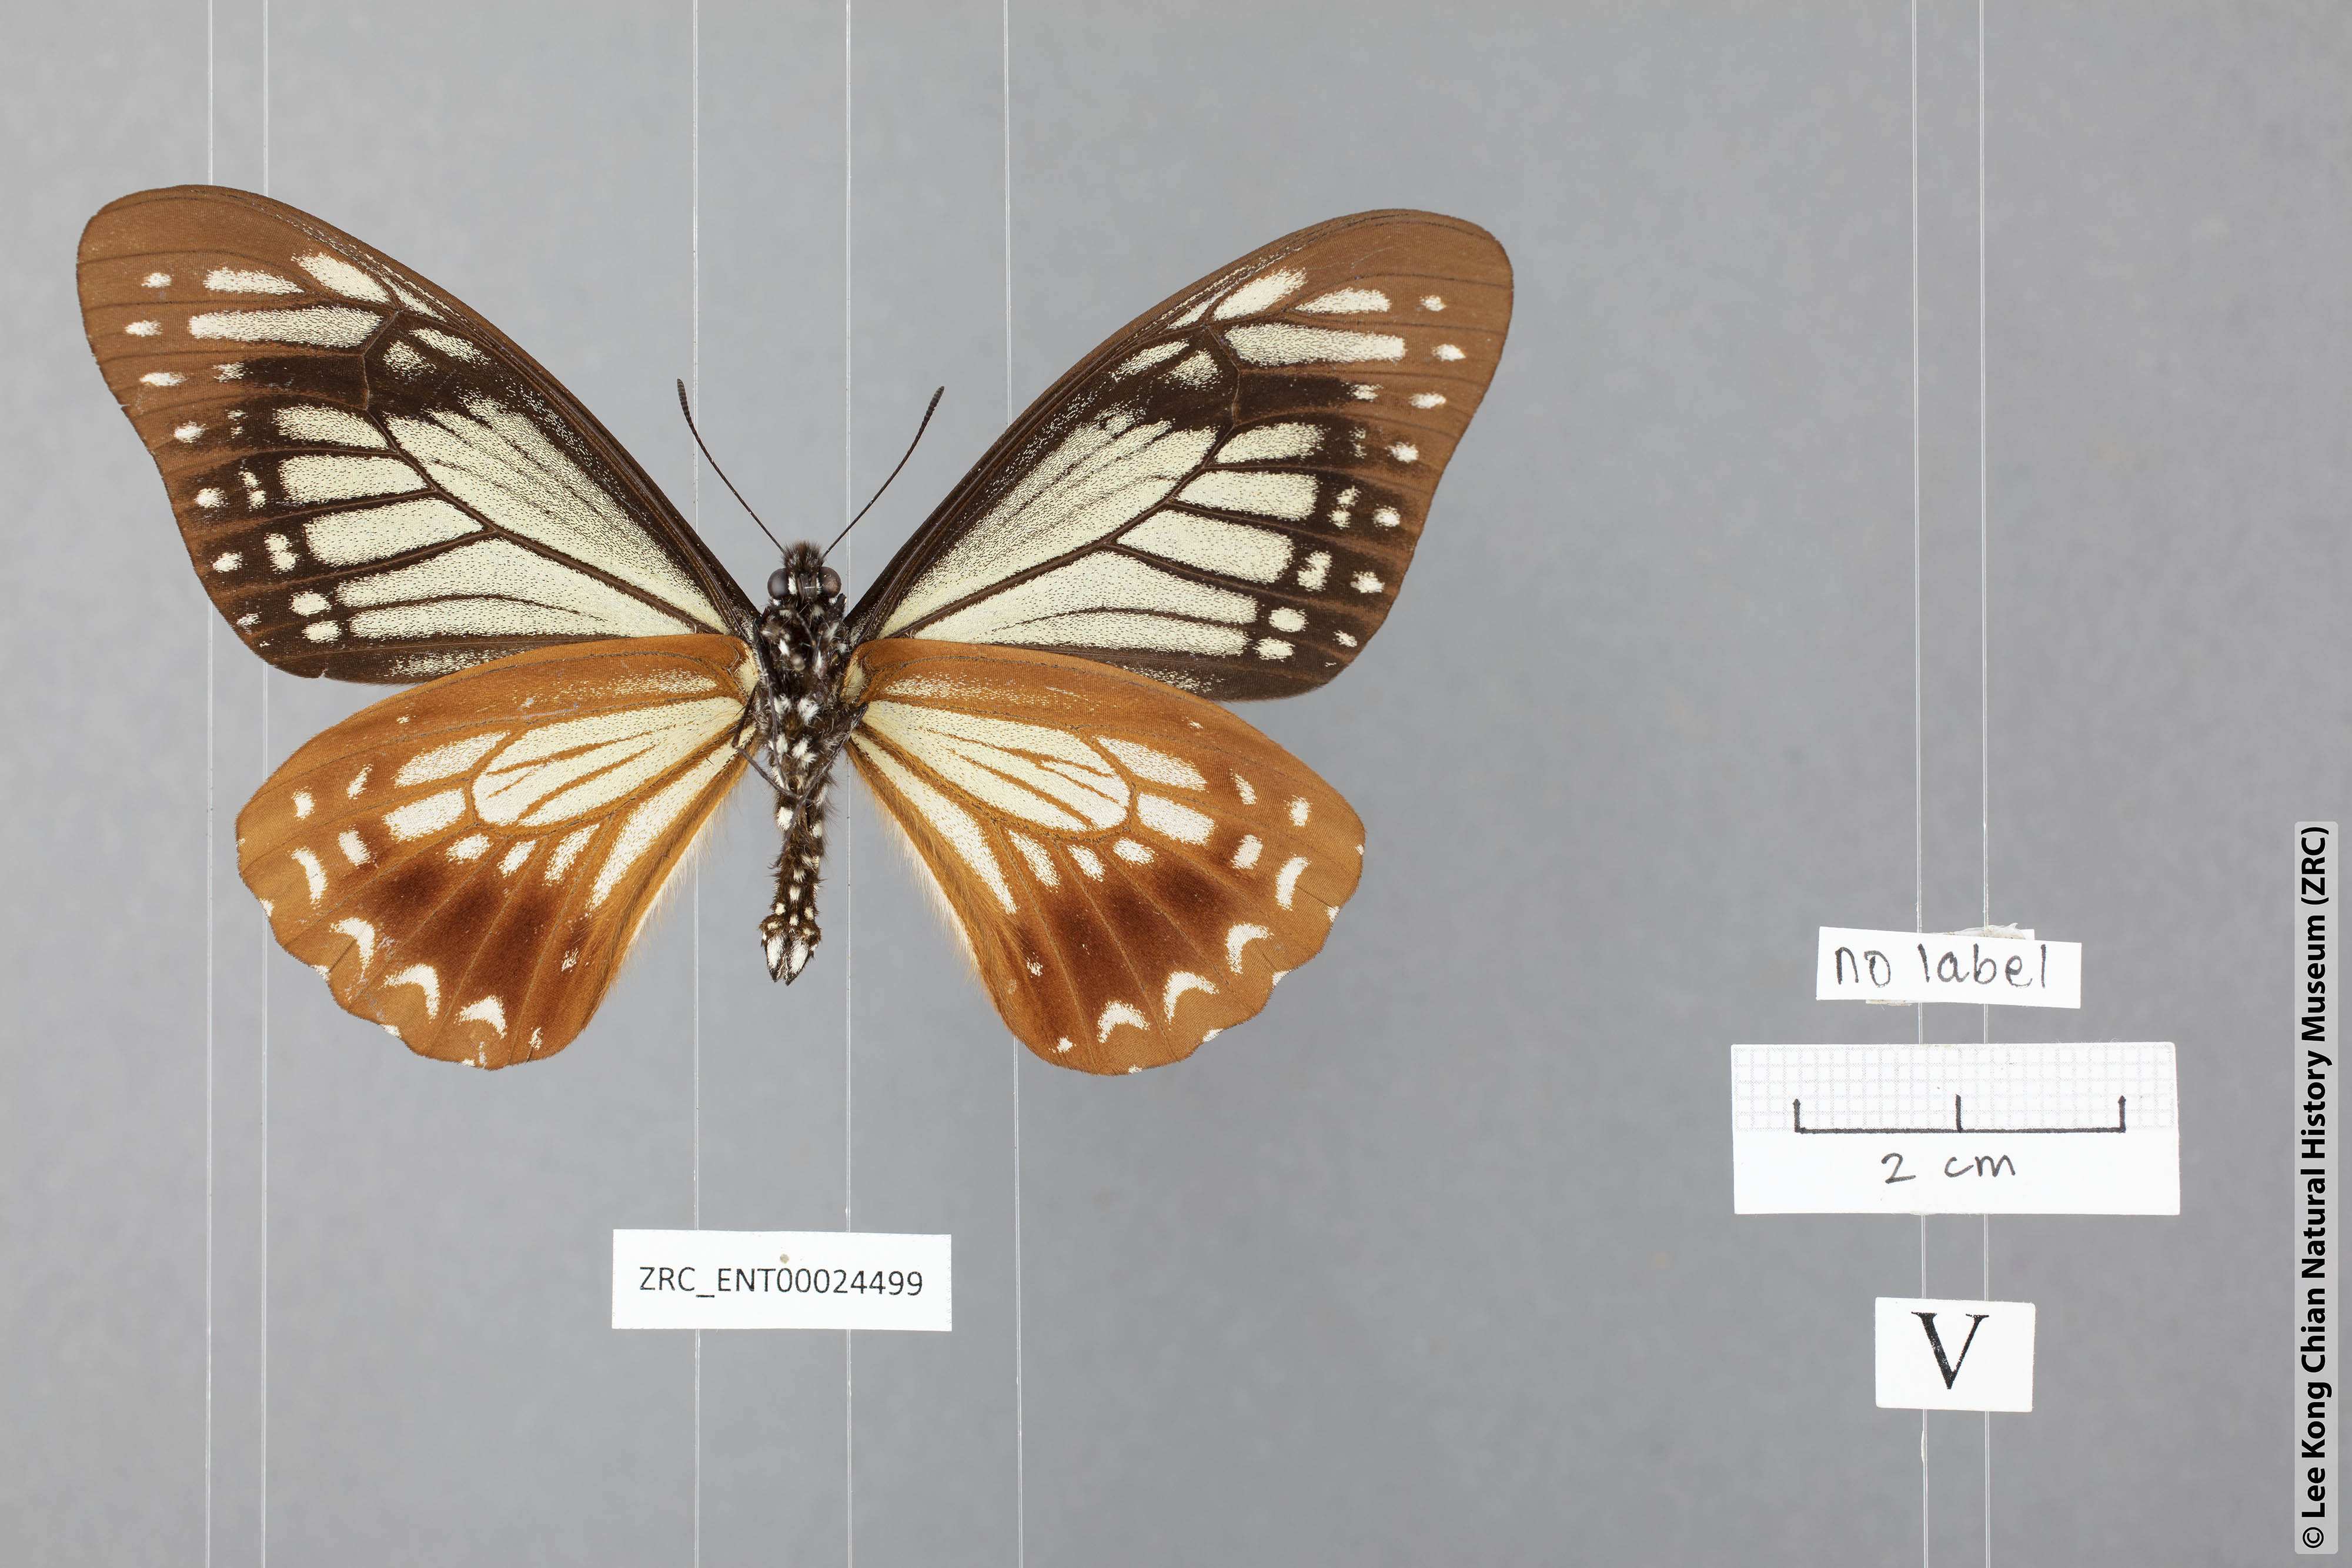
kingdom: Animalia
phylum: Arthropoda
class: Insecta
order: Lepidoptera
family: Papilionidae
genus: Chilasa
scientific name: Chilasa agestor
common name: Tawny mime
